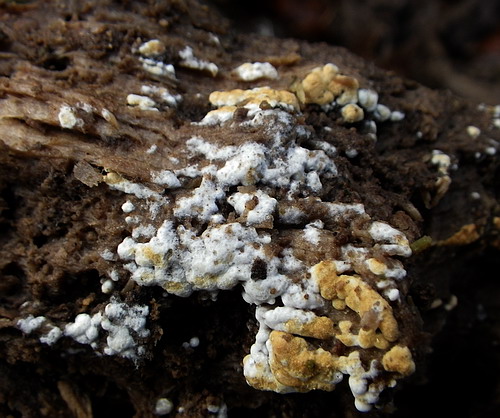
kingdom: Fungi
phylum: Basidiomycota
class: Agaricomycetes
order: Cantharellales
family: Botryobasidiaceae
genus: Botryobasidium
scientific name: Botryobasidium aureum
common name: gylden spindhinde
